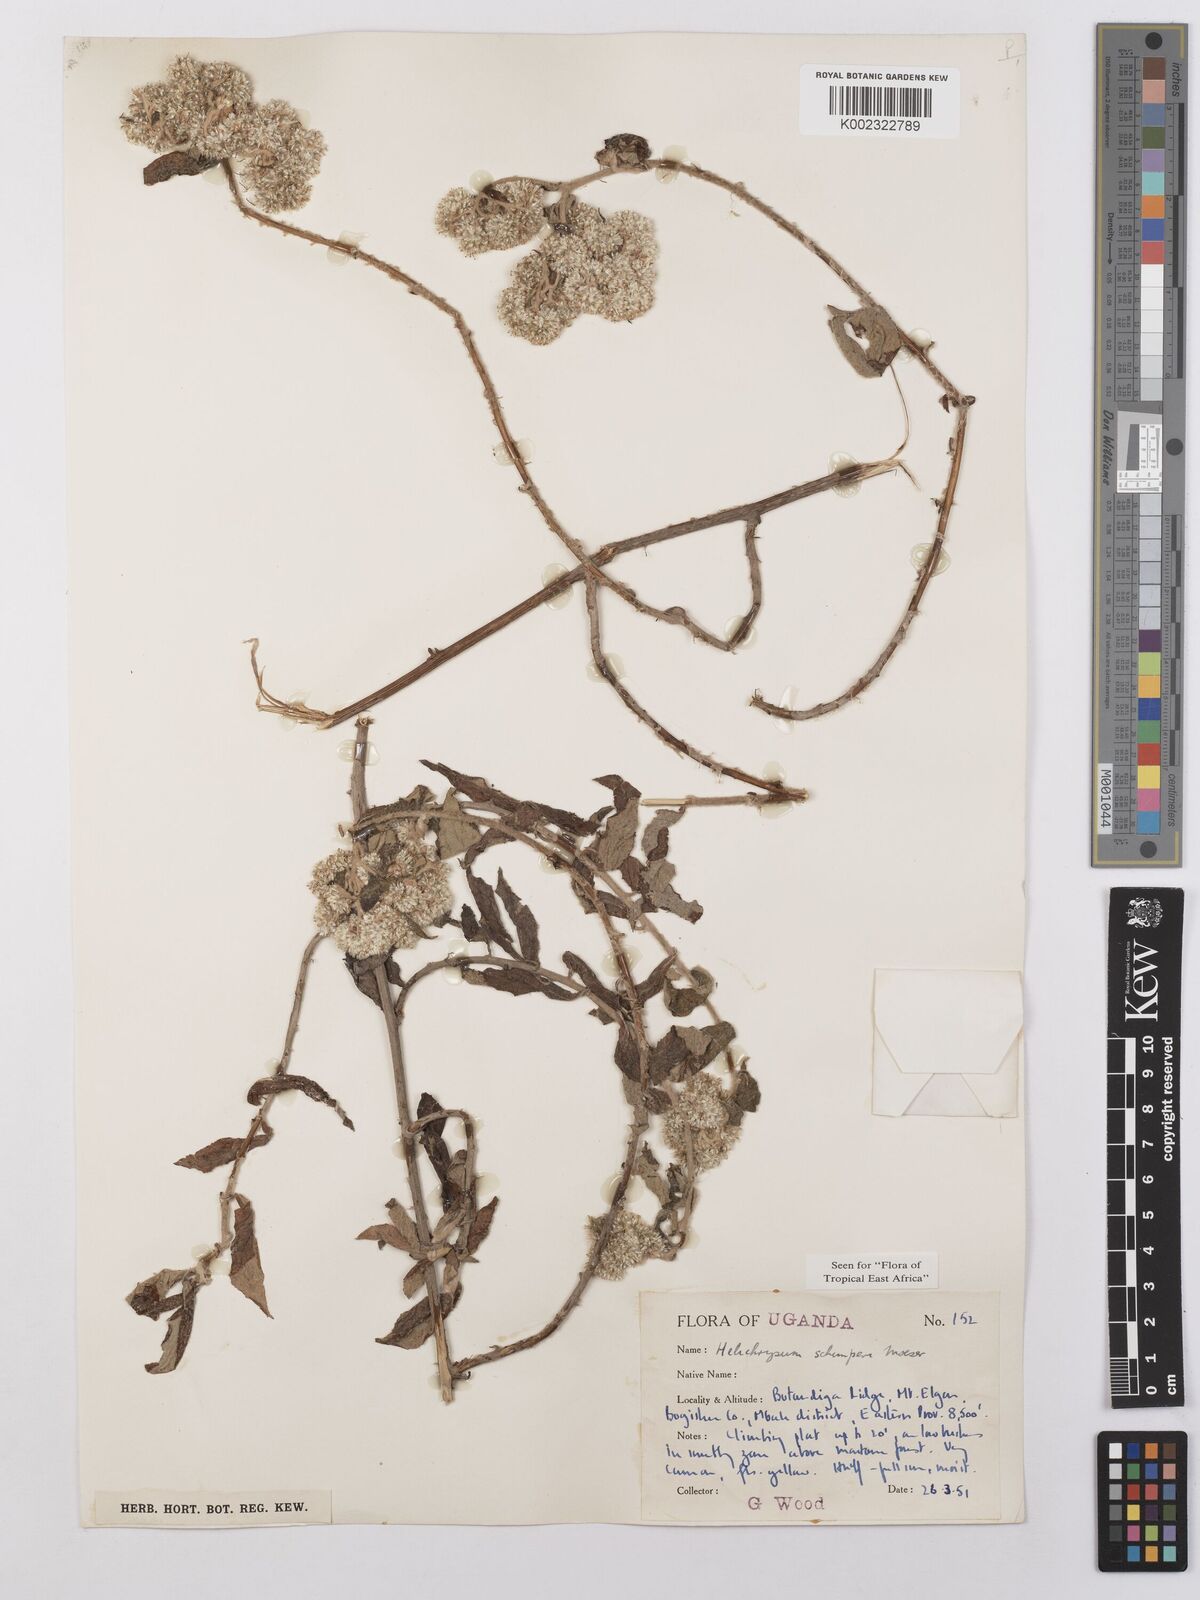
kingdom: Plantae
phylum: Tracheophyta
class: Magnoliopsida
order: Asterales
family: Asteraceae
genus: Helichrysum
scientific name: Helichrysum schimperi
